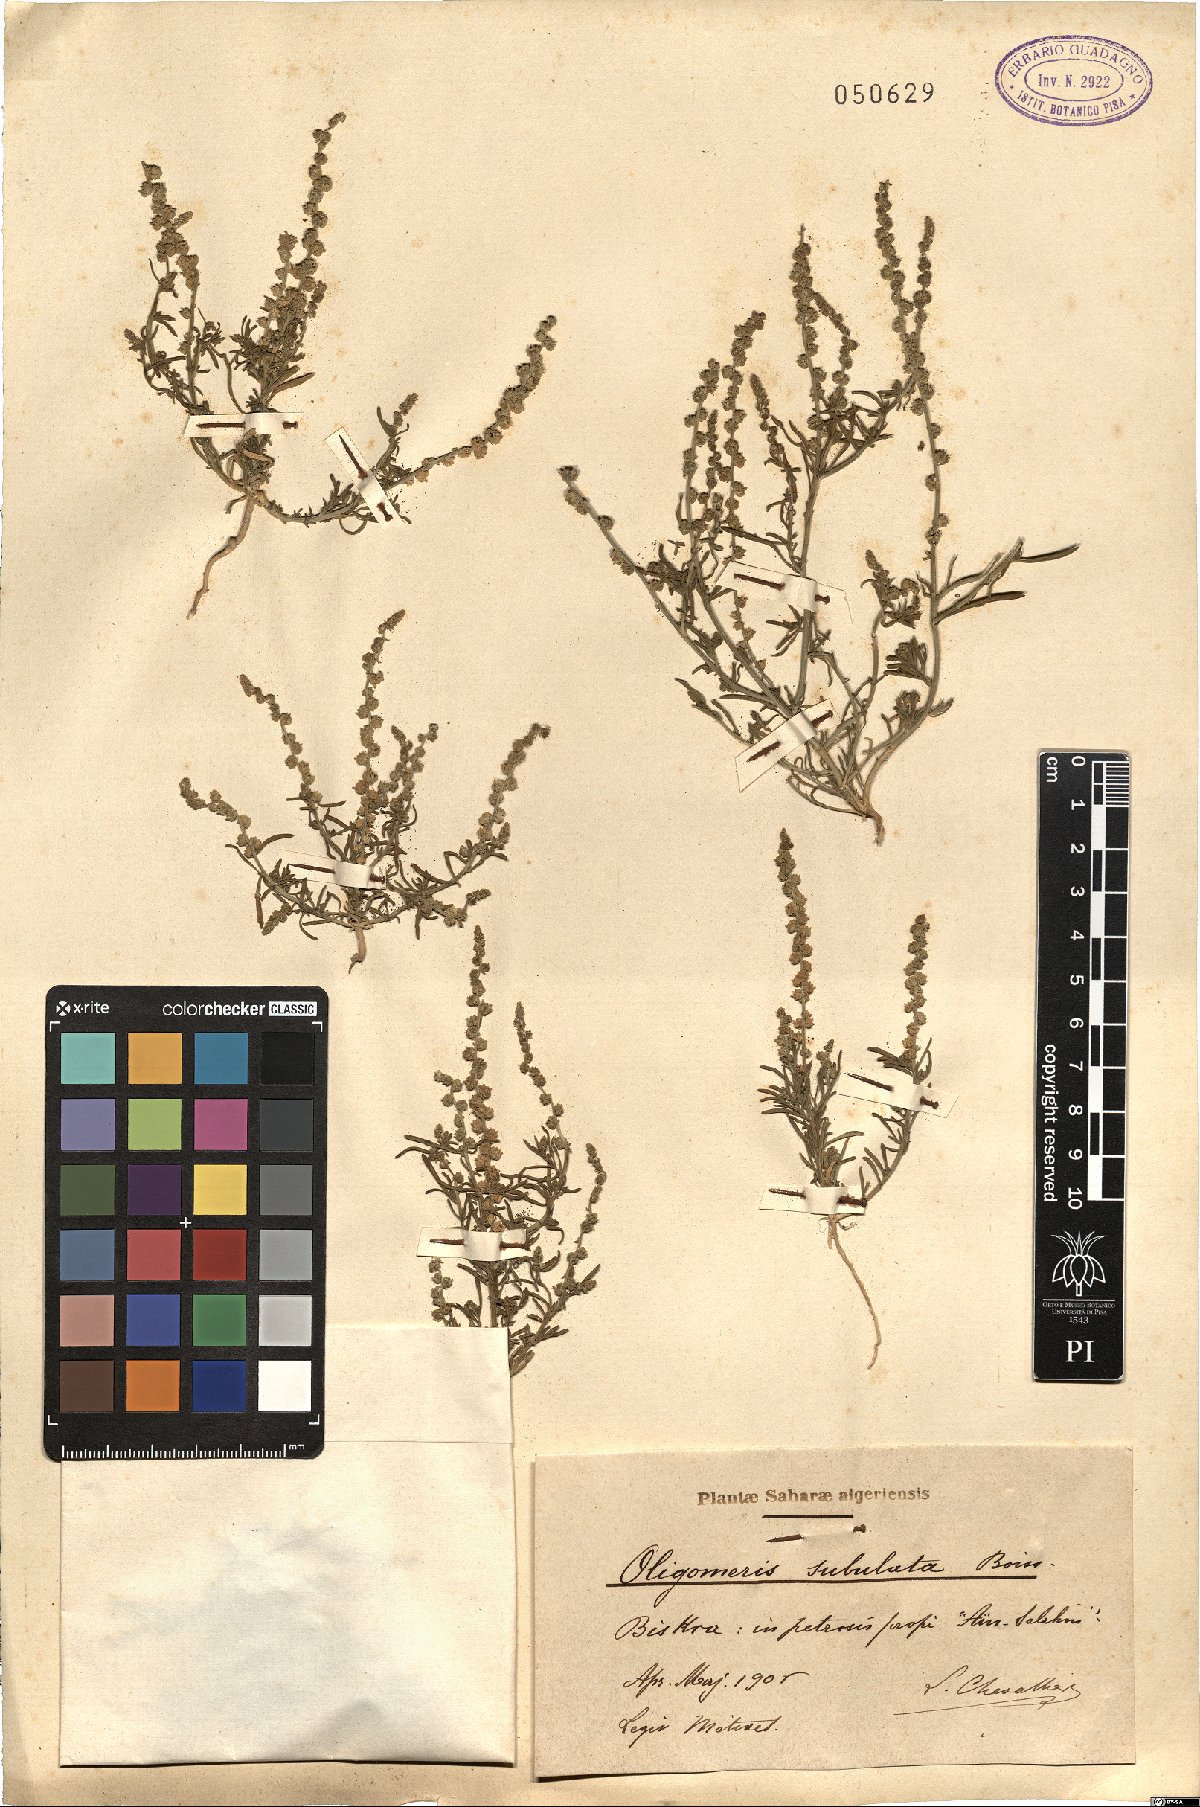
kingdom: Plantae
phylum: Tracheophyta
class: Magnoliopsida
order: Brassicales
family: Resedaceae
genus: Oligomeris
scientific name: Oligomeris linifolia
